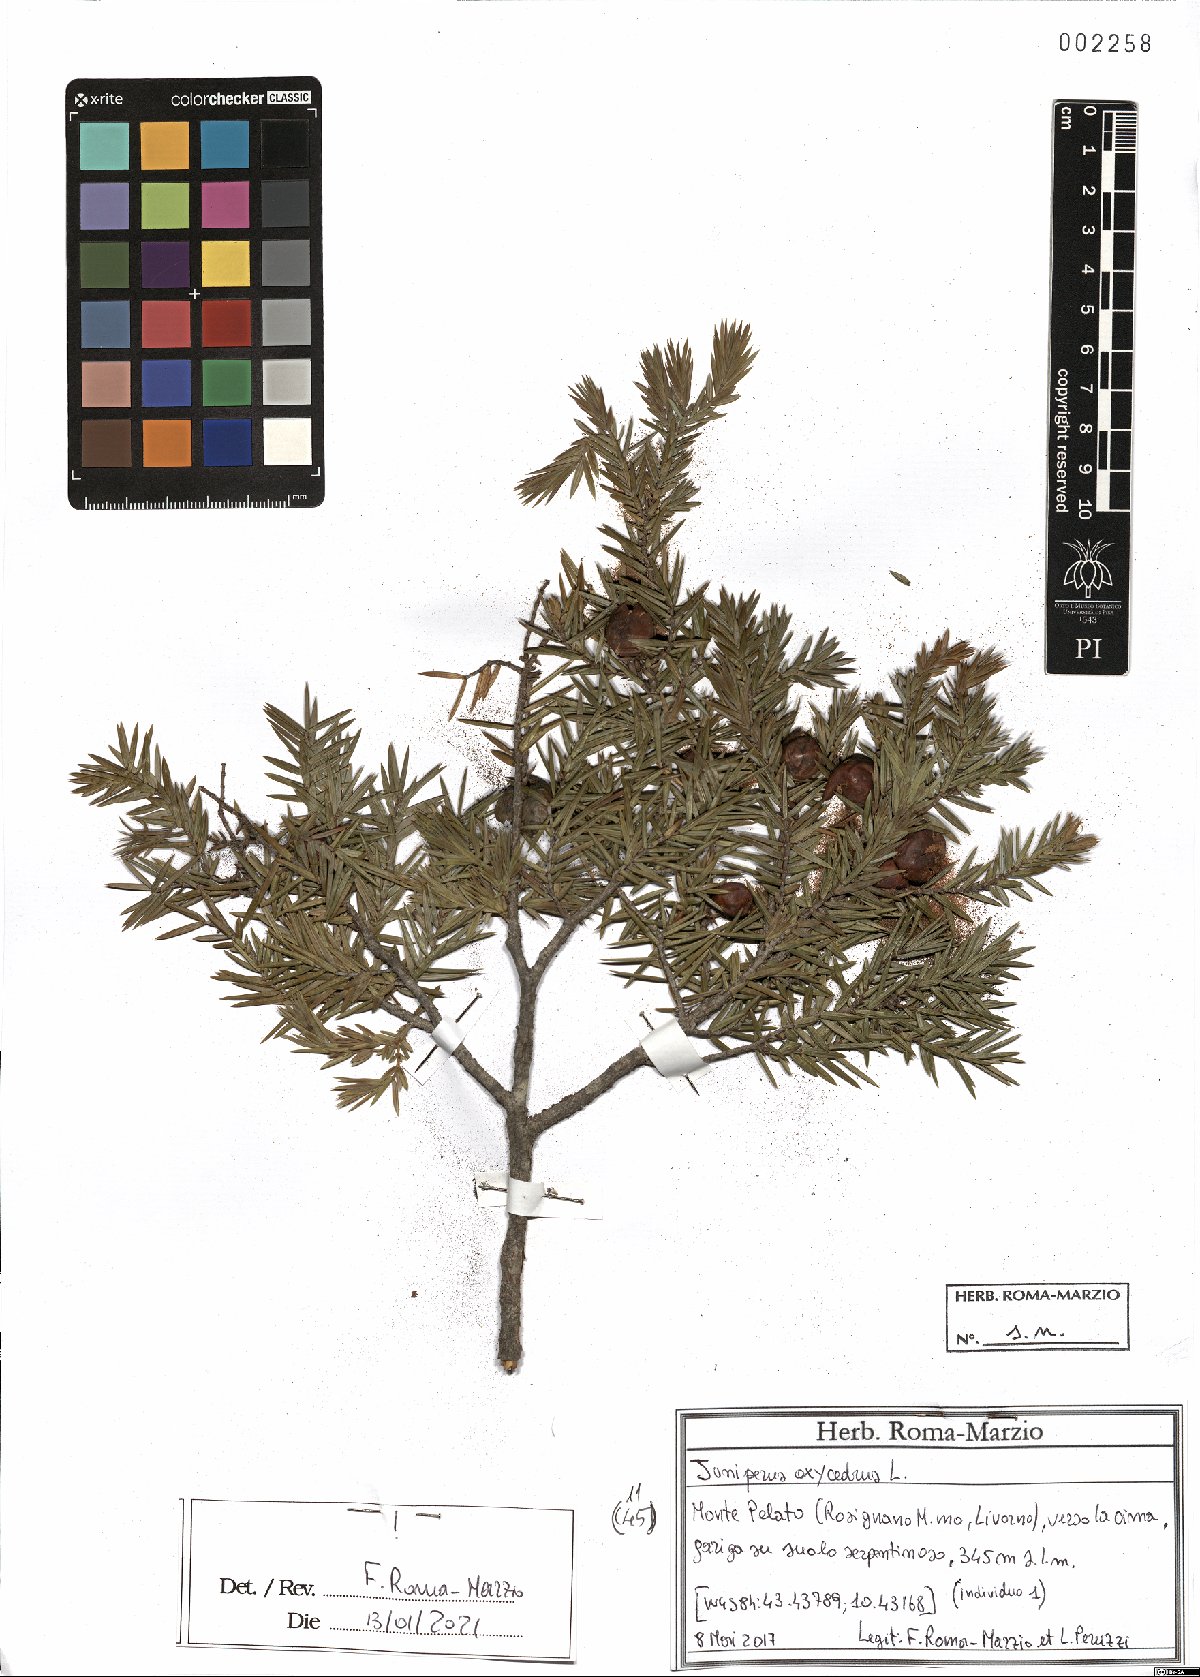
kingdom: Plantae
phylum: Tracheophyta
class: Pinopsida
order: Pinales
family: Cupressaceae
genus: Juniperus
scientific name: Juniperus oxycedrus
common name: Prickly juniper
